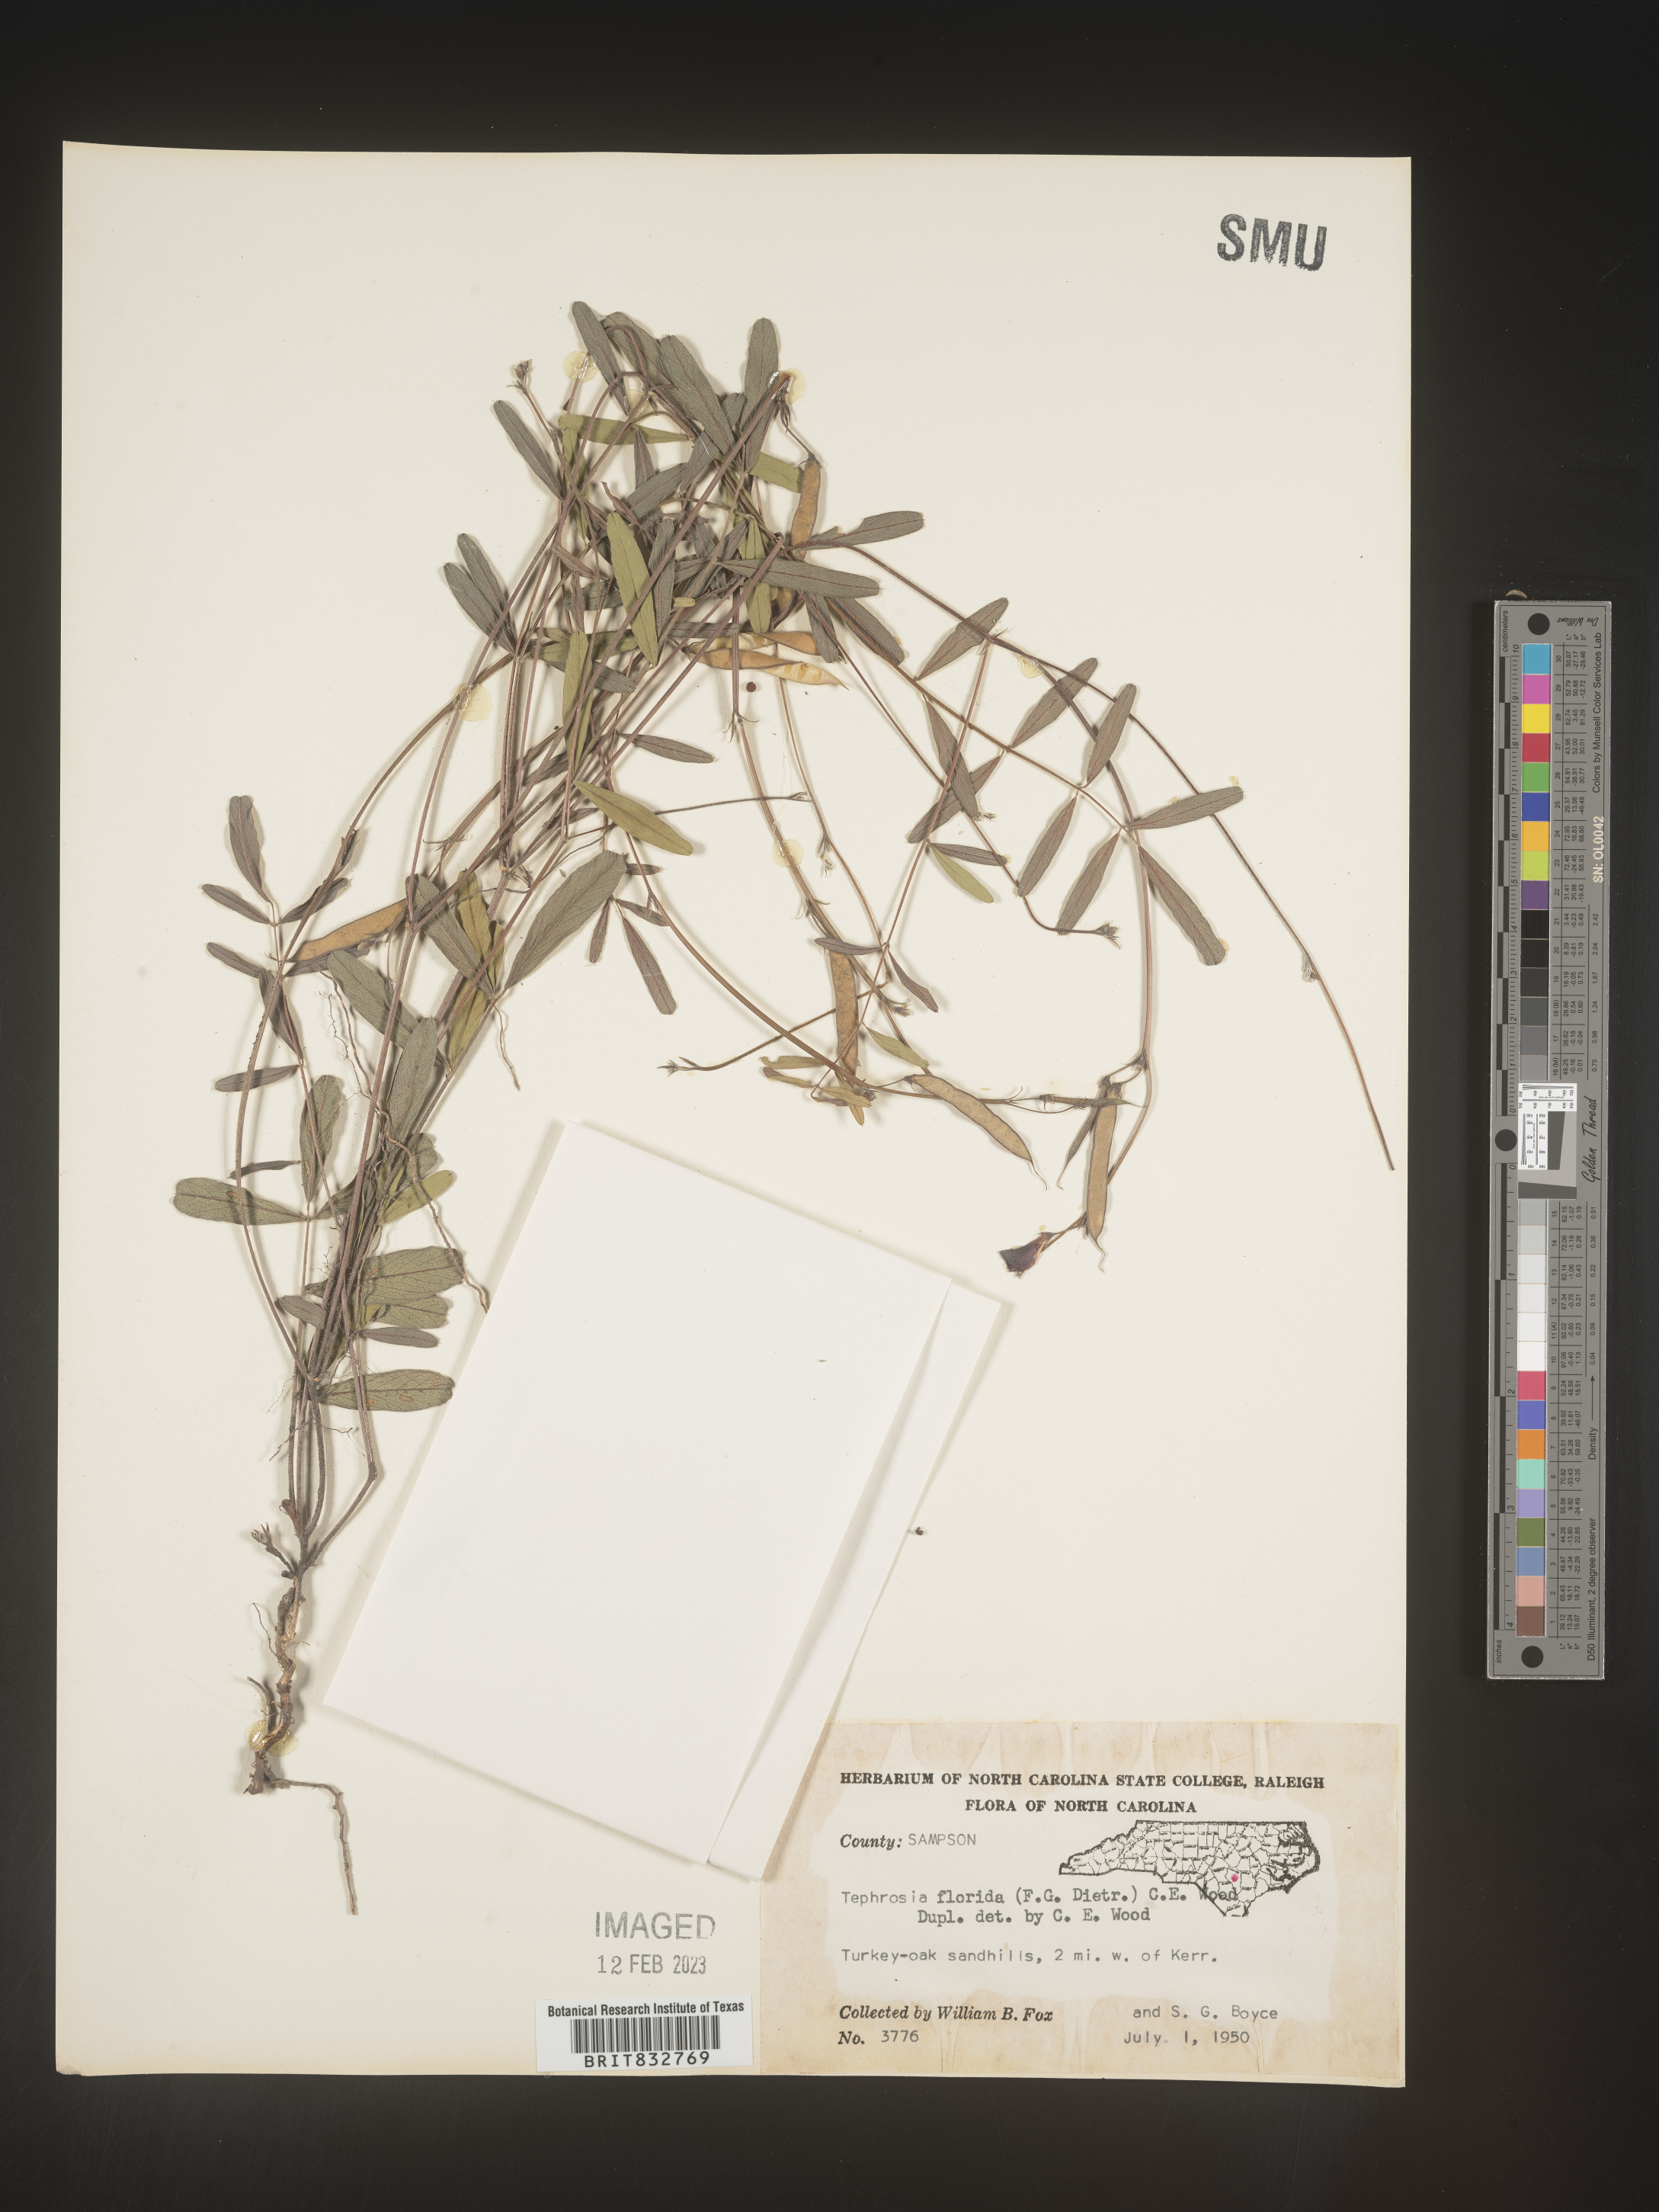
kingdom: Plantae
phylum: Tracheophyta
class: Magnoliopsida
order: Fabales
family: Fabaceae
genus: Tephrosia
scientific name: Tephrosia florida
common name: Florida hoary-pea
